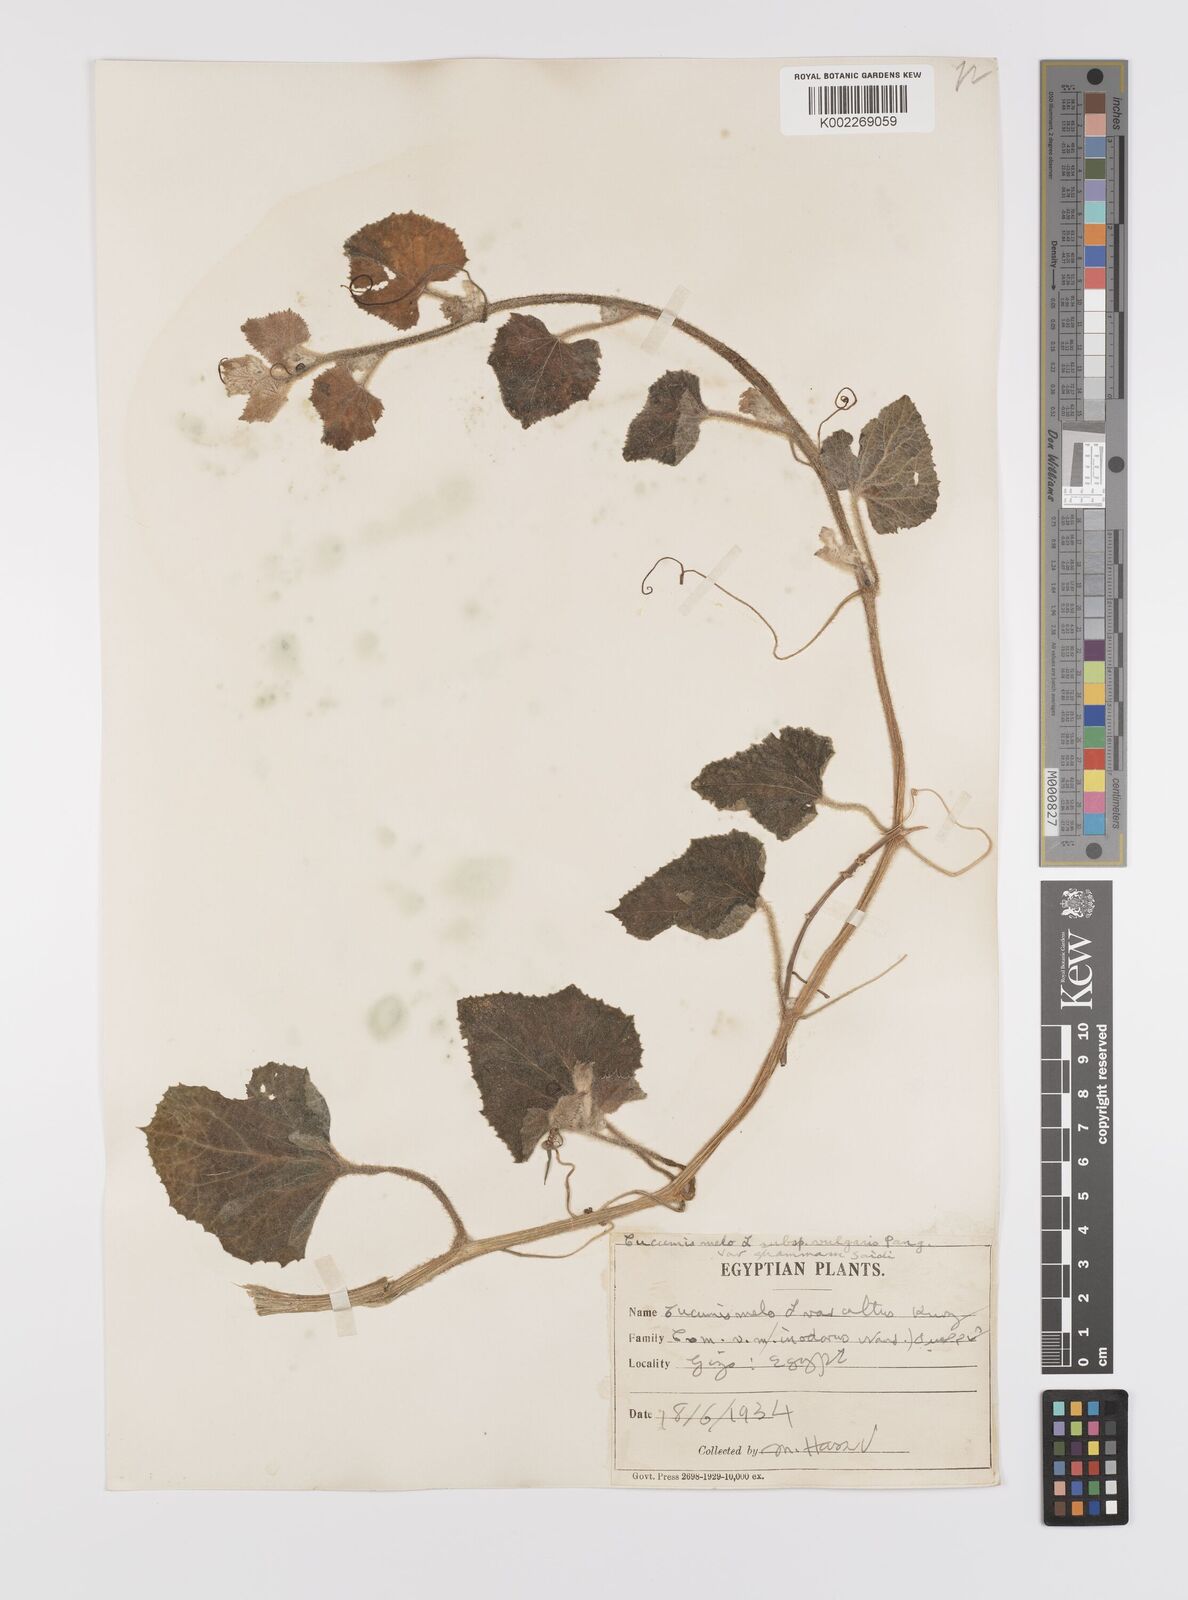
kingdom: Plantae
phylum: Tracheophyta
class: Magnoliopsida
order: Cucurbitales
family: Cucurbitaceae
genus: Cucumis
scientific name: Cucumis melo
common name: Melon
